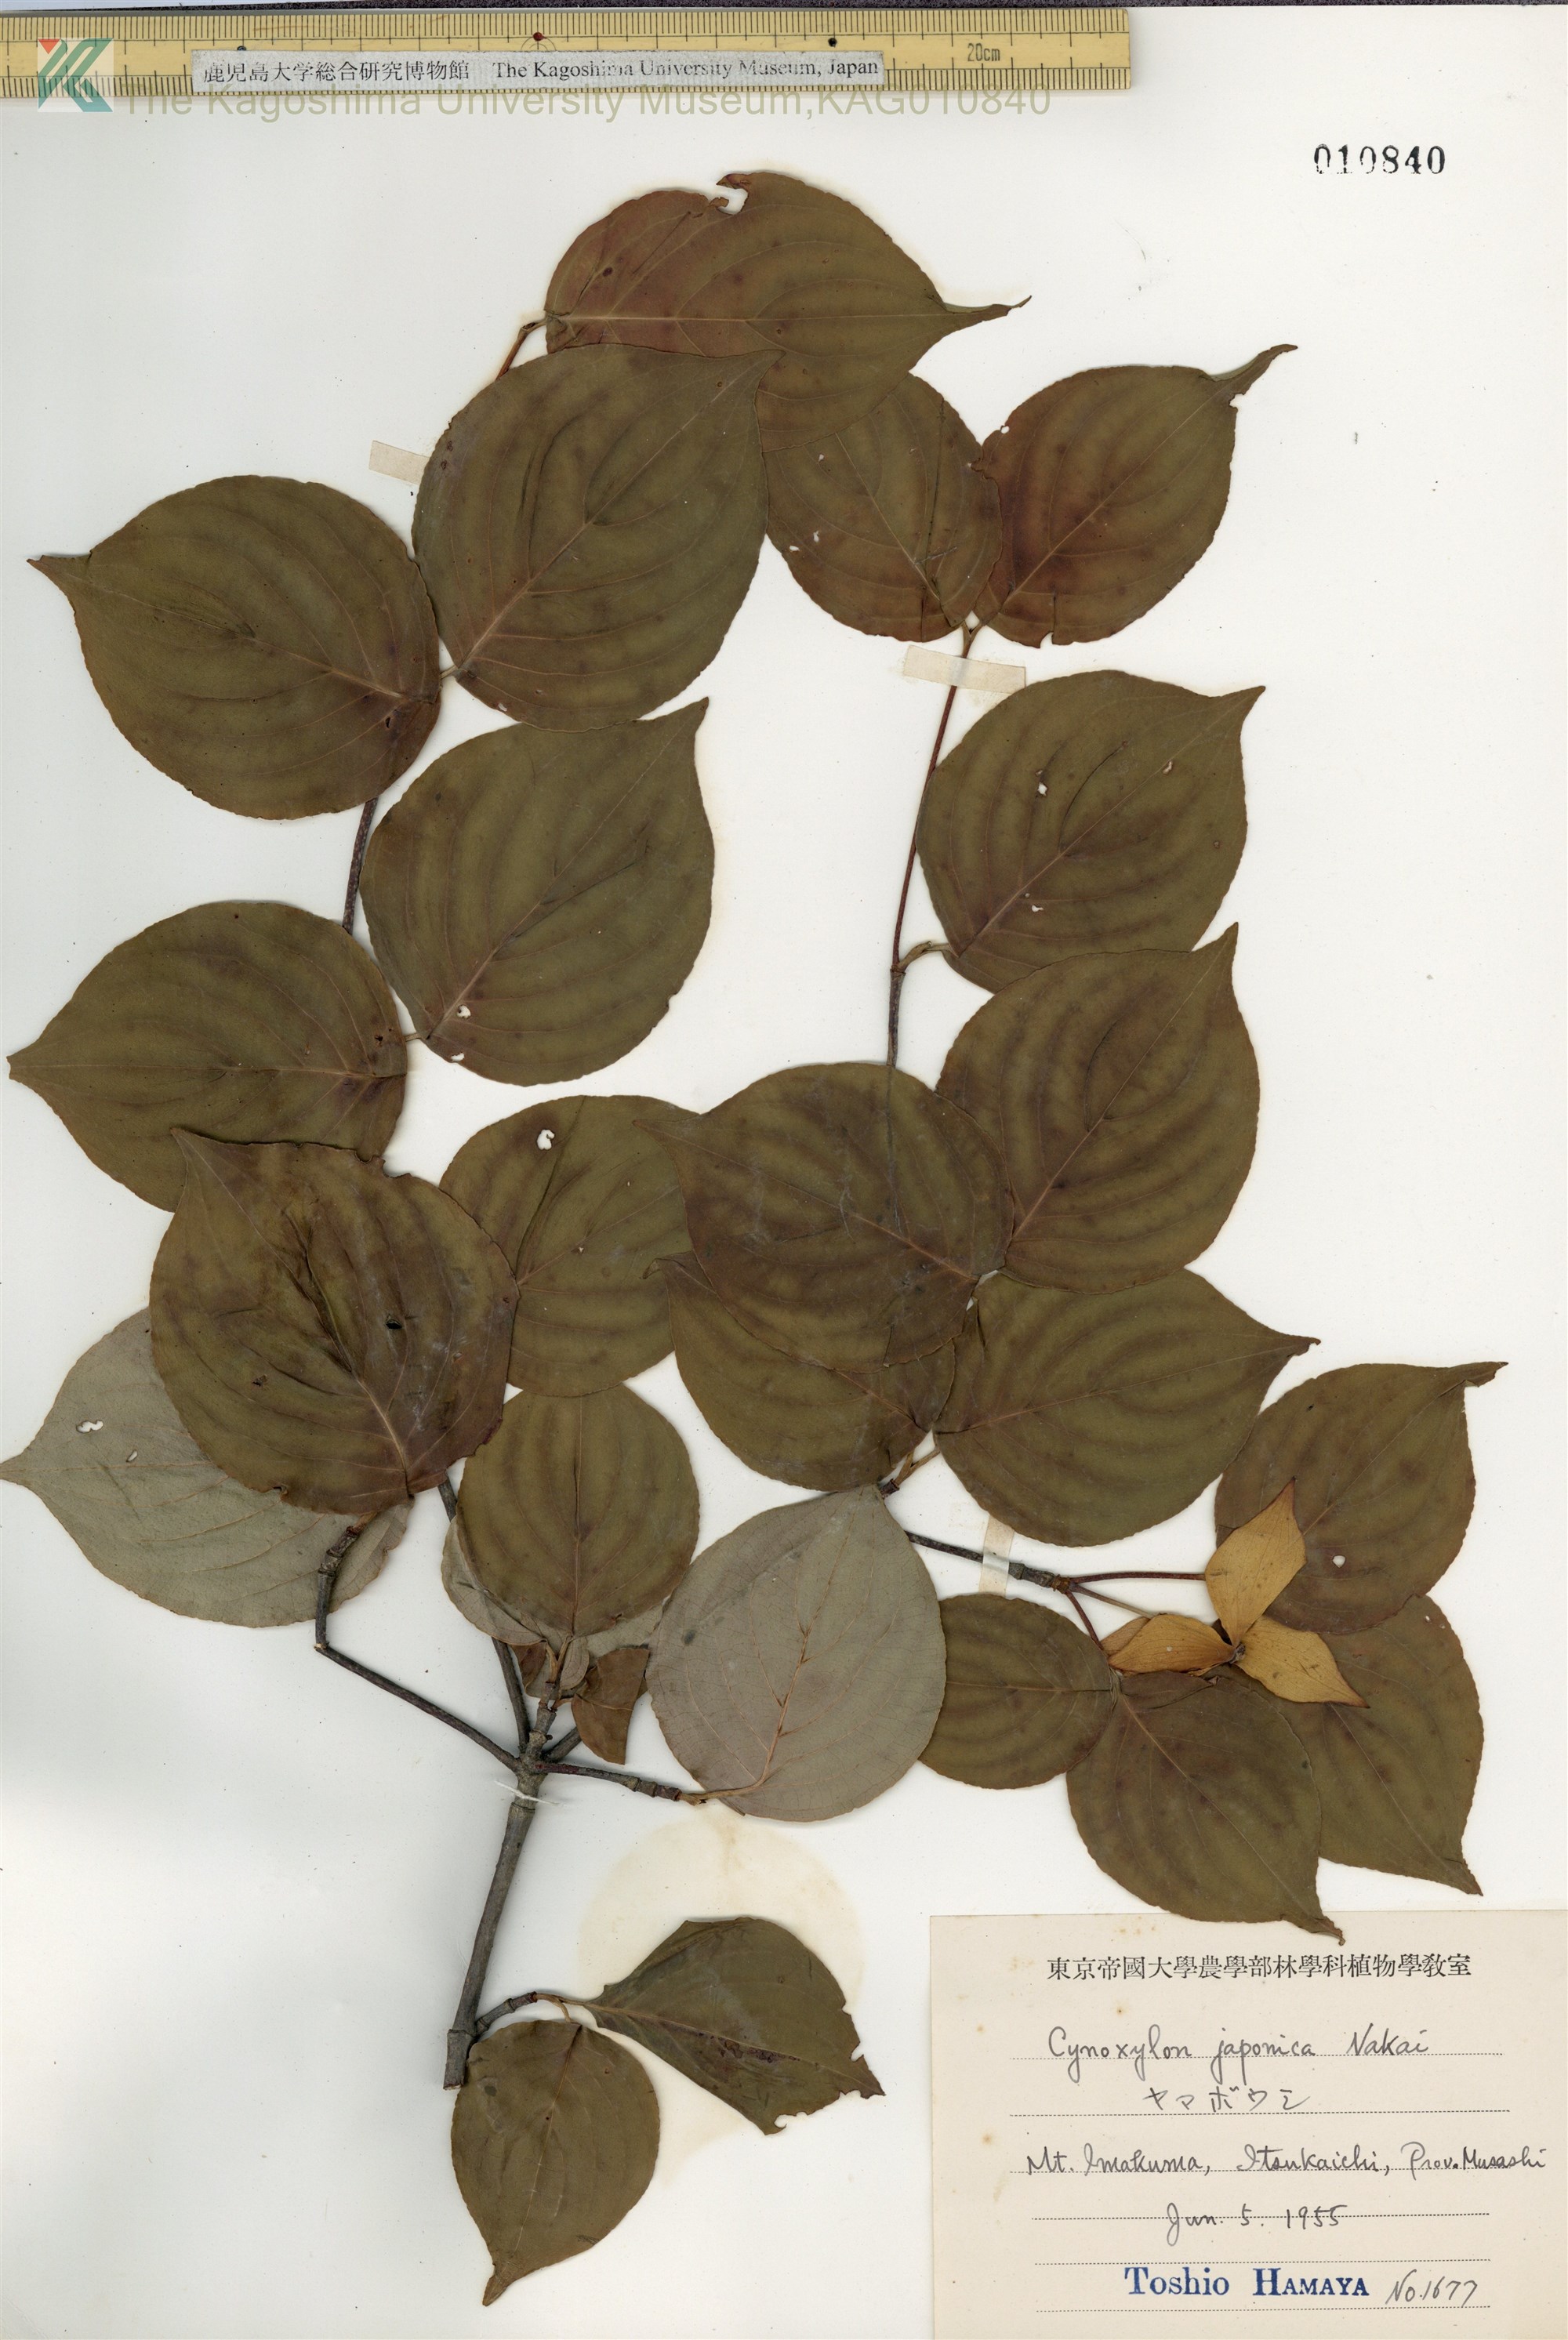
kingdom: Plantae
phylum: Tracheophyta
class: Magnoliopsida
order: Cornales
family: Cornaceae
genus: Cornus
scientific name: Cornus kousa
